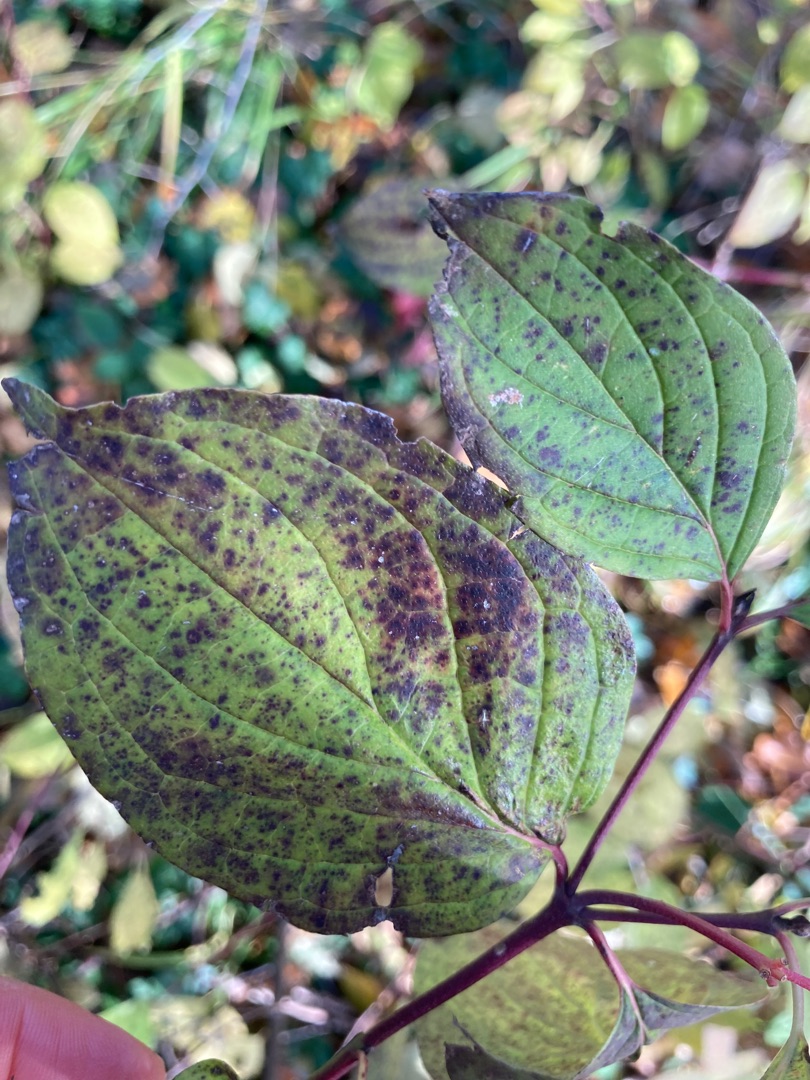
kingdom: Plantae
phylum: Tracheophyta
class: Magnoliopsida
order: Cornales
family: Cornaceae
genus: Cornus
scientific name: Cornus sanguinea
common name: Rød kornel
